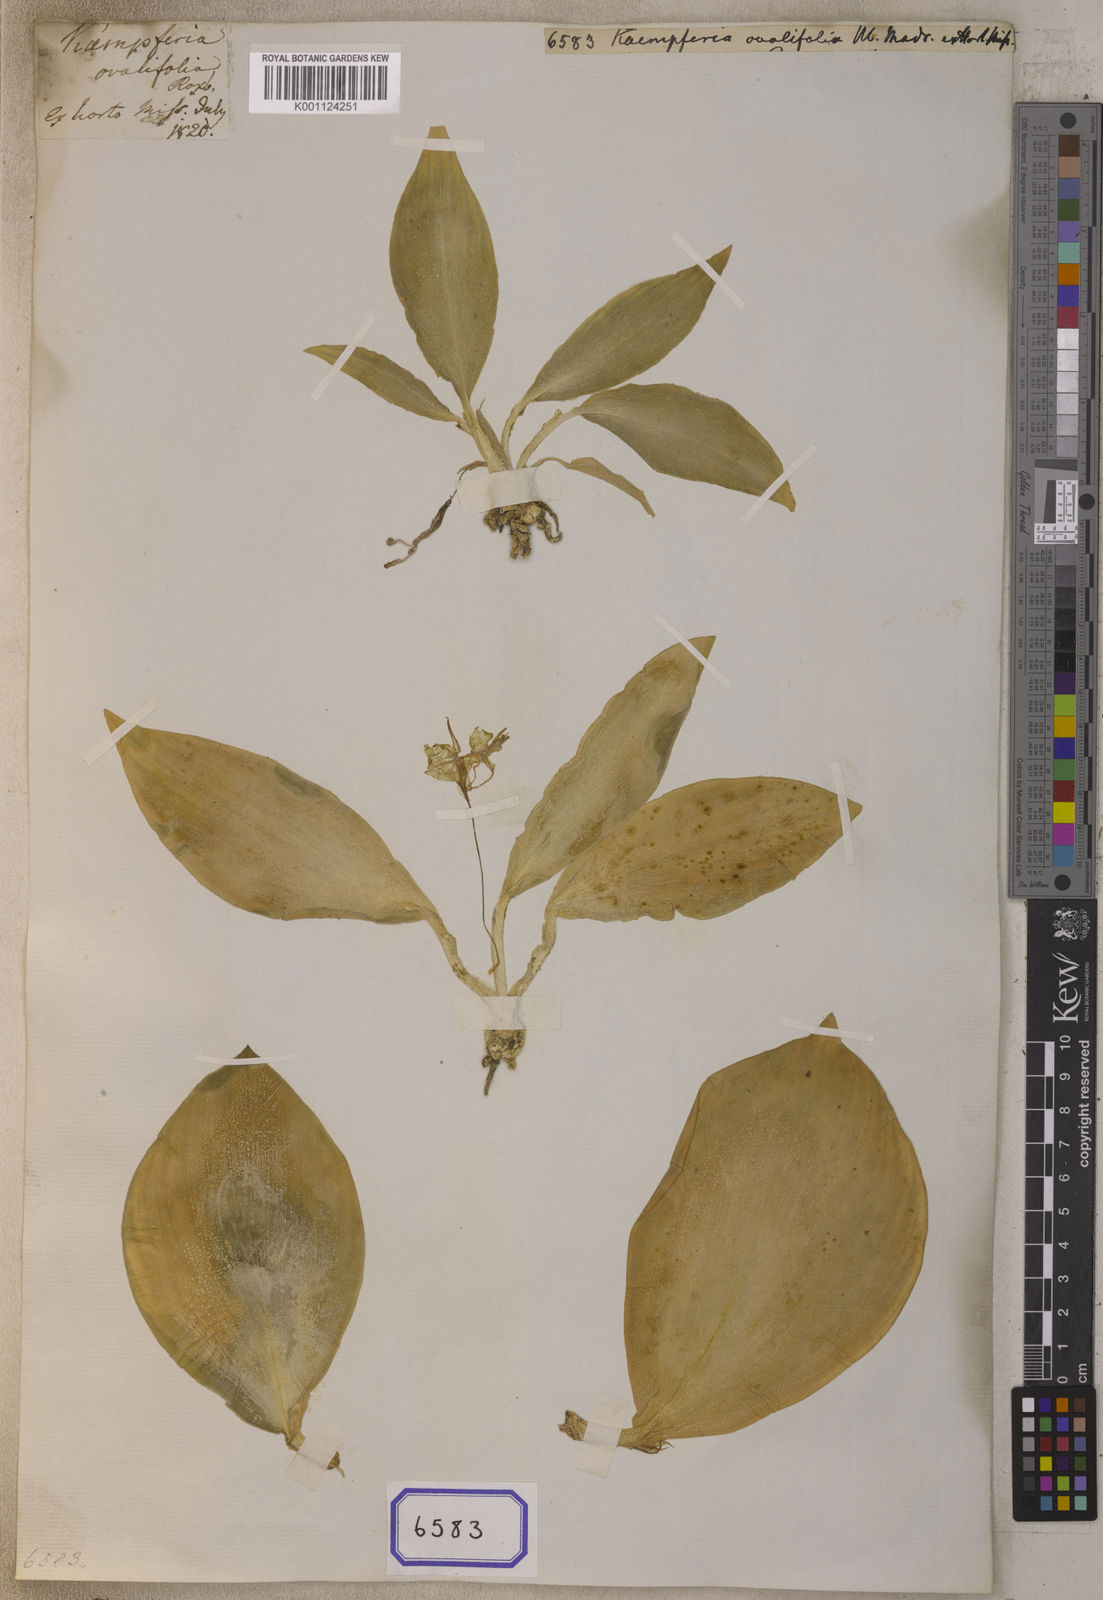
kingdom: Plantae
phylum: Tracheophyta
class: Liliopsida
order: Zingiberales
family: Zingiberaceae
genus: Kaempferia
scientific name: Kaempferia ovalifolia
